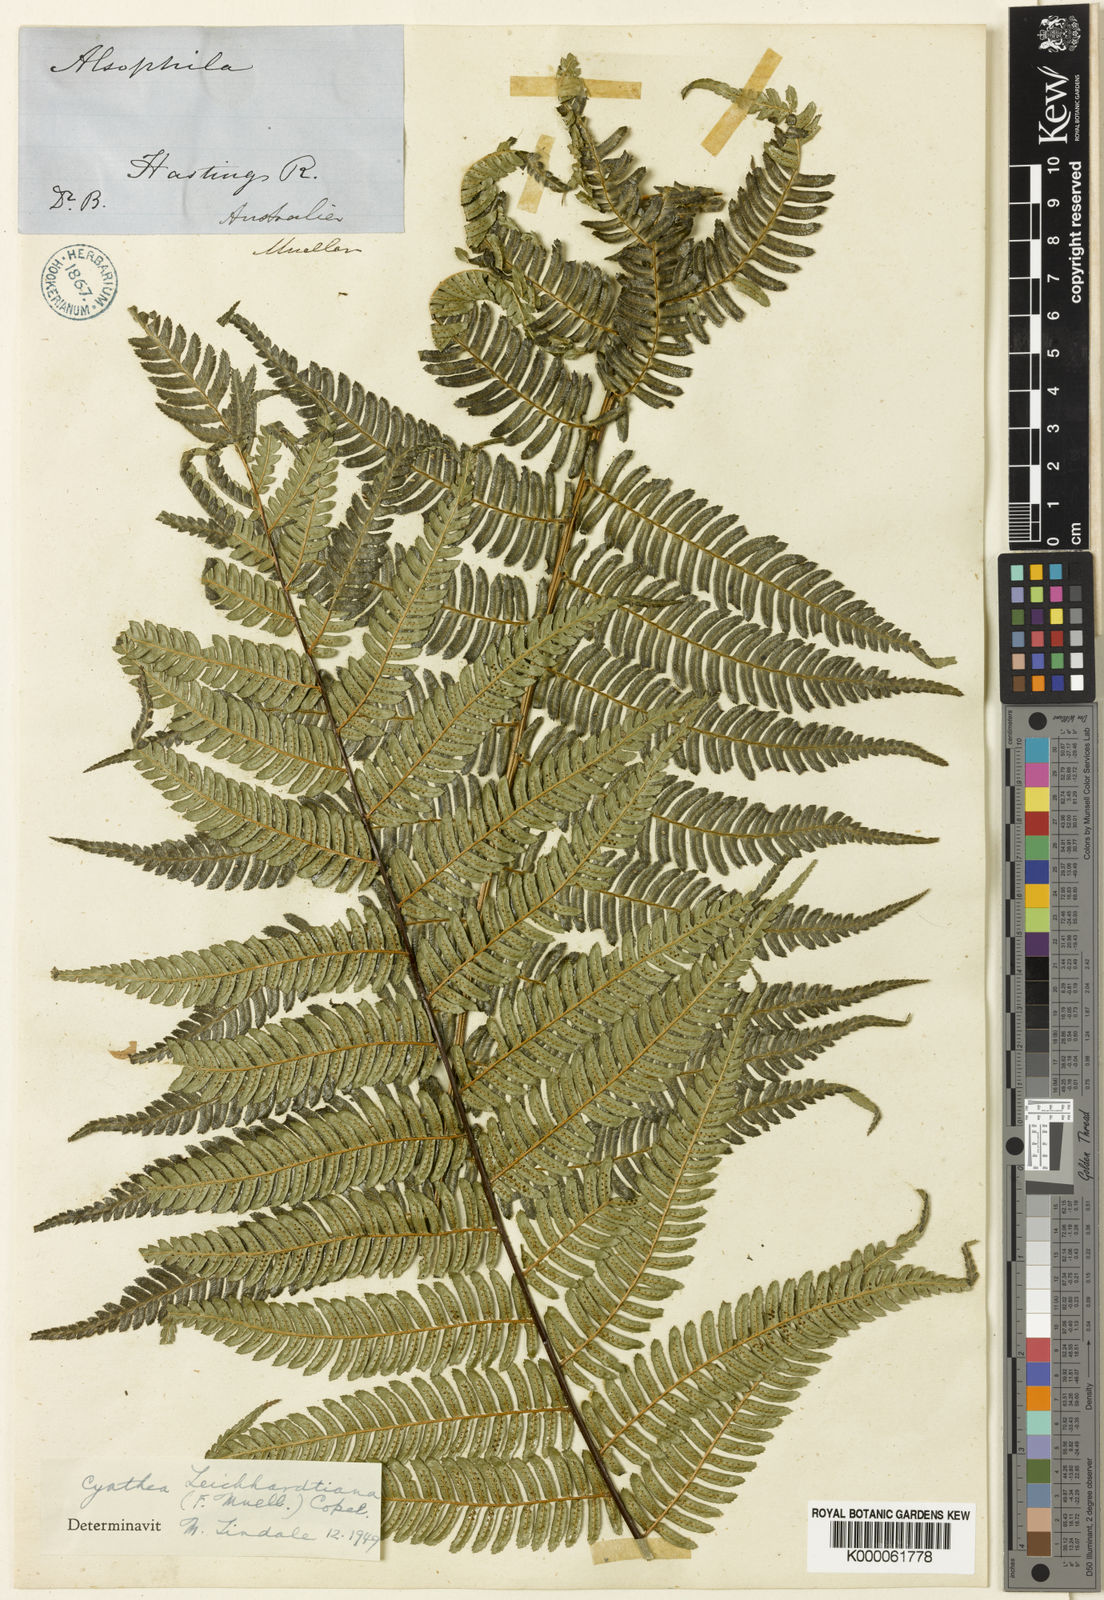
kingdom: Plantae
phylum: Tracheophyta
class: Polypodiopsida
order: Cyatheales
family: Cyatheaceae
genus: Alsophila
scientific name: Alsophila leichhardtiana
